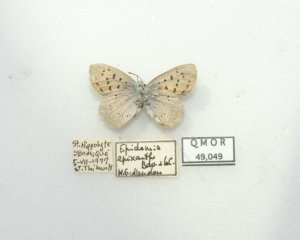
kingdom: Animalia
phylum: Arthropoda
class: Insecta
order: Lepidoptera
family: Sesiidae
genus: Sesia
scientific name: Sesia Lycaena epixanthe
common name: Bog Copper
